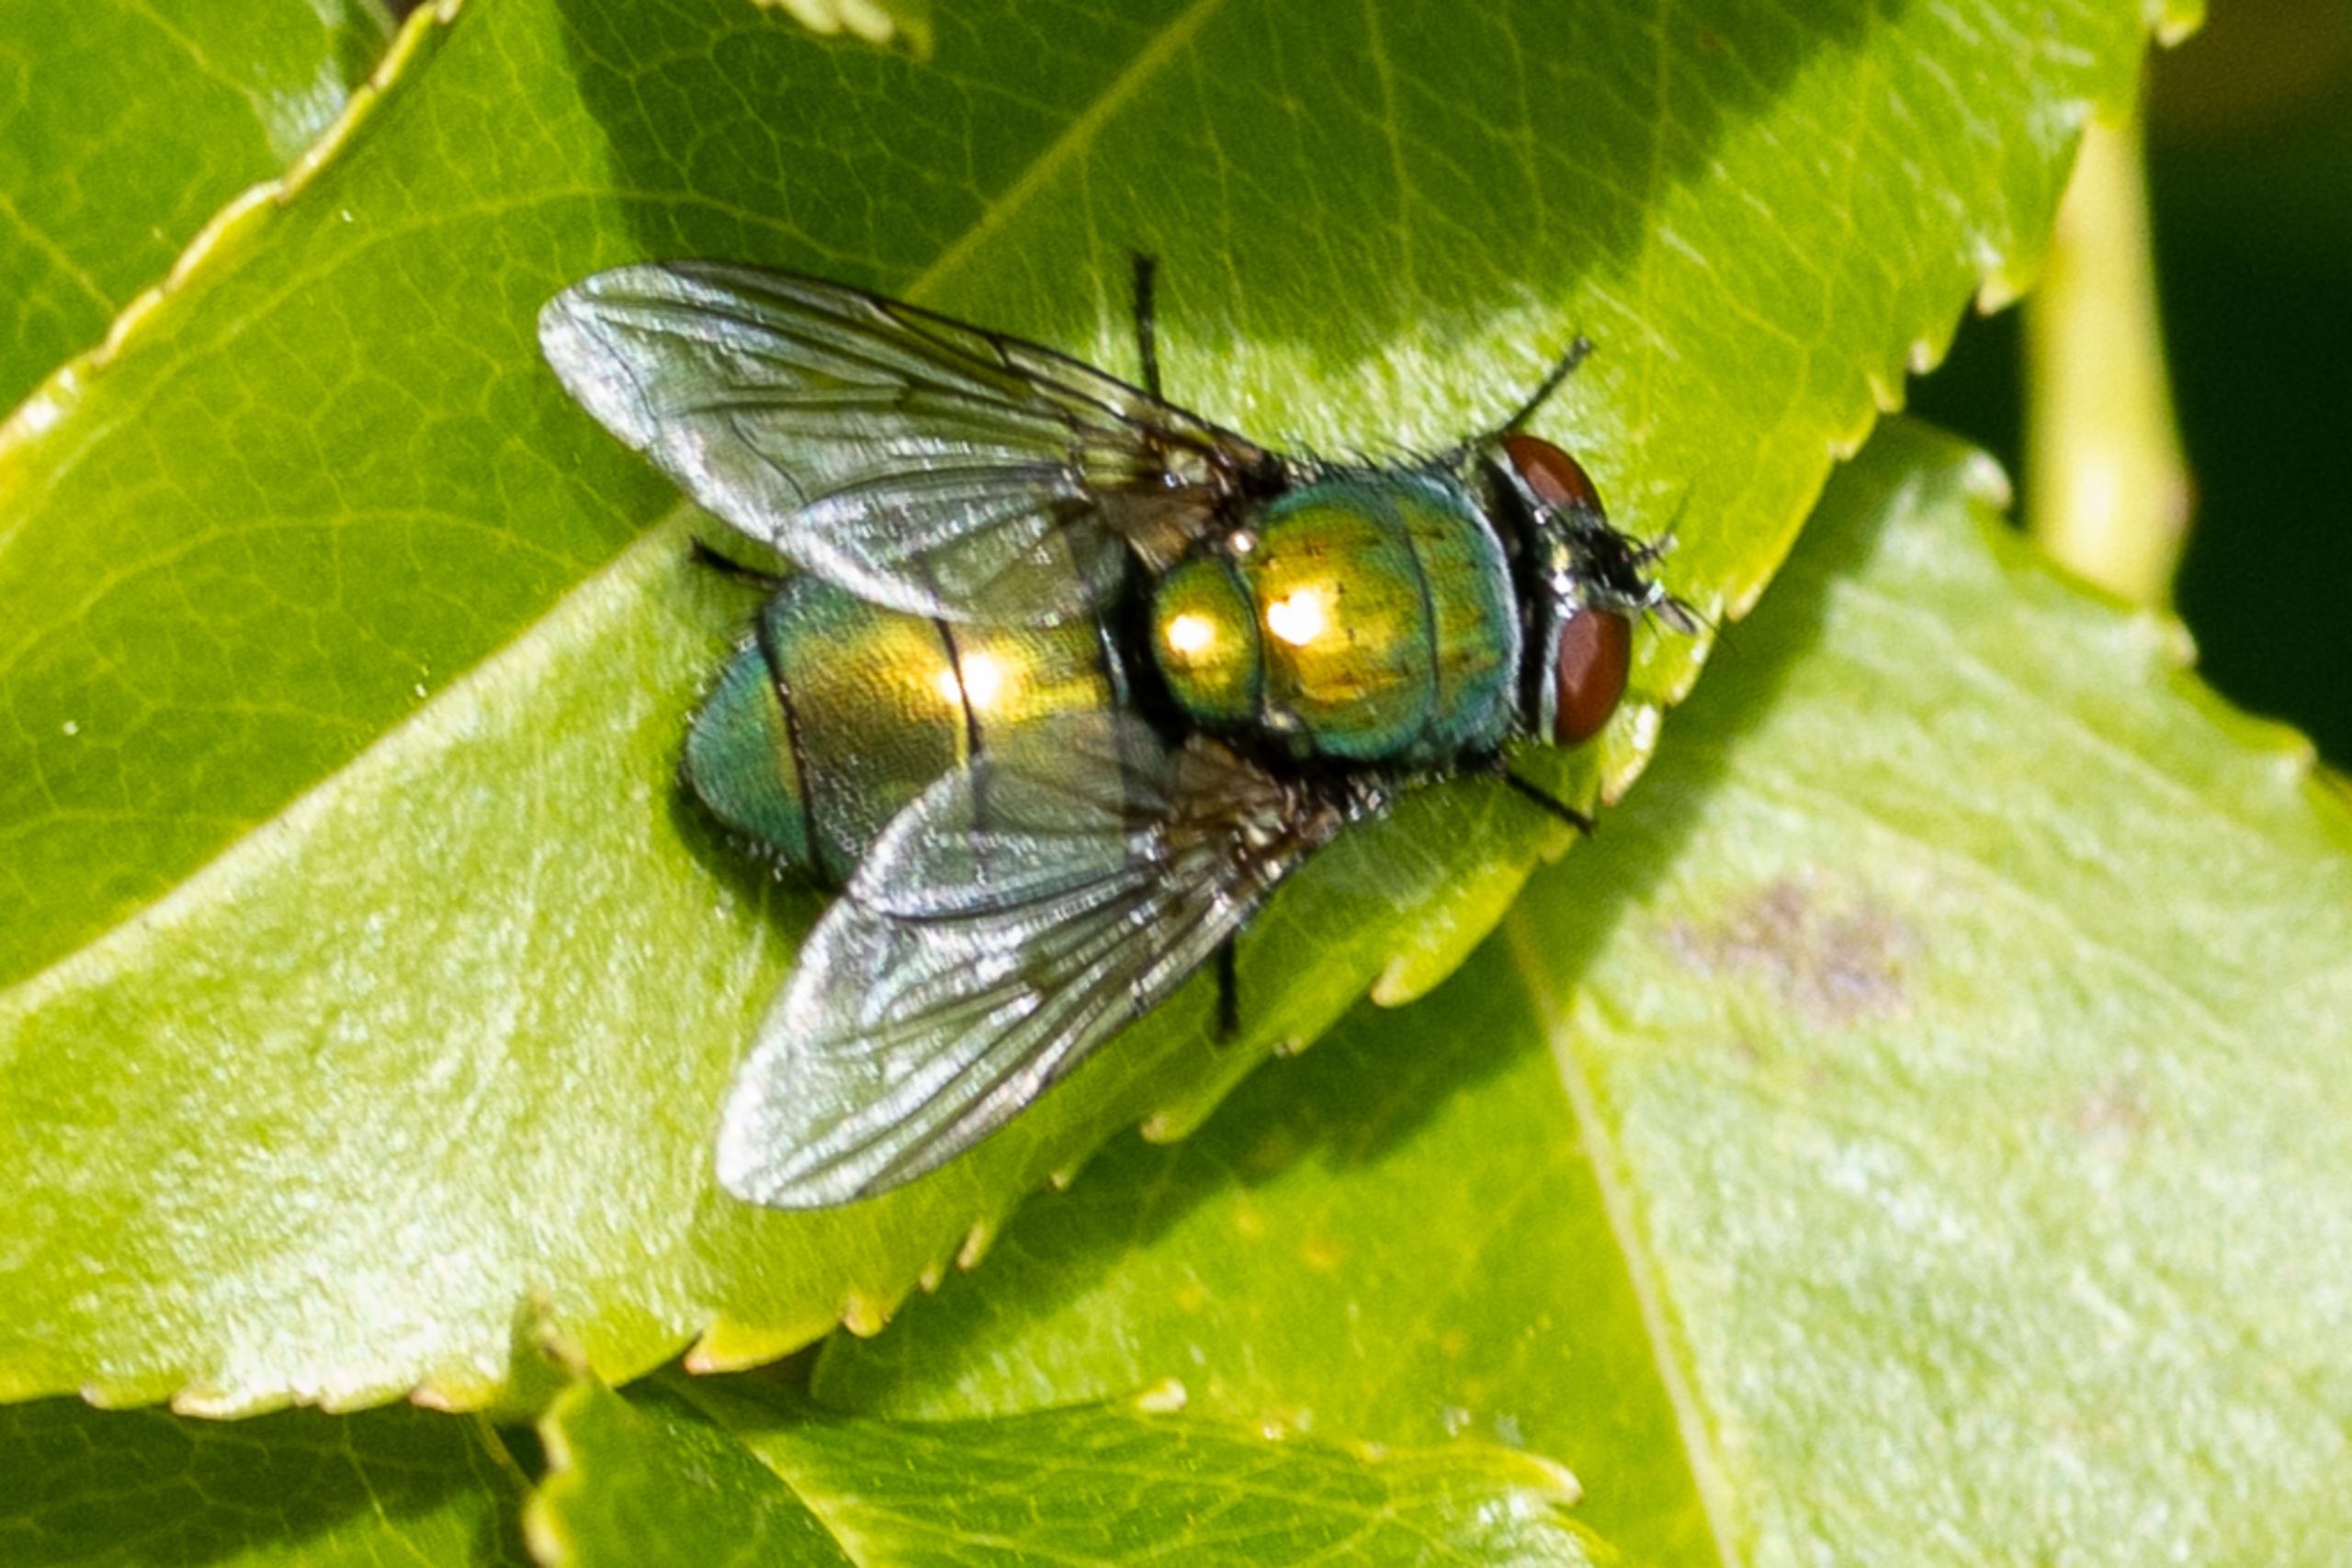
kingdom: Animalia
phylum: Arthropoda
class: Insecta
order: Diptera
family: Calliphoridae
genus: Lucilia
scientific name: Lucilia
